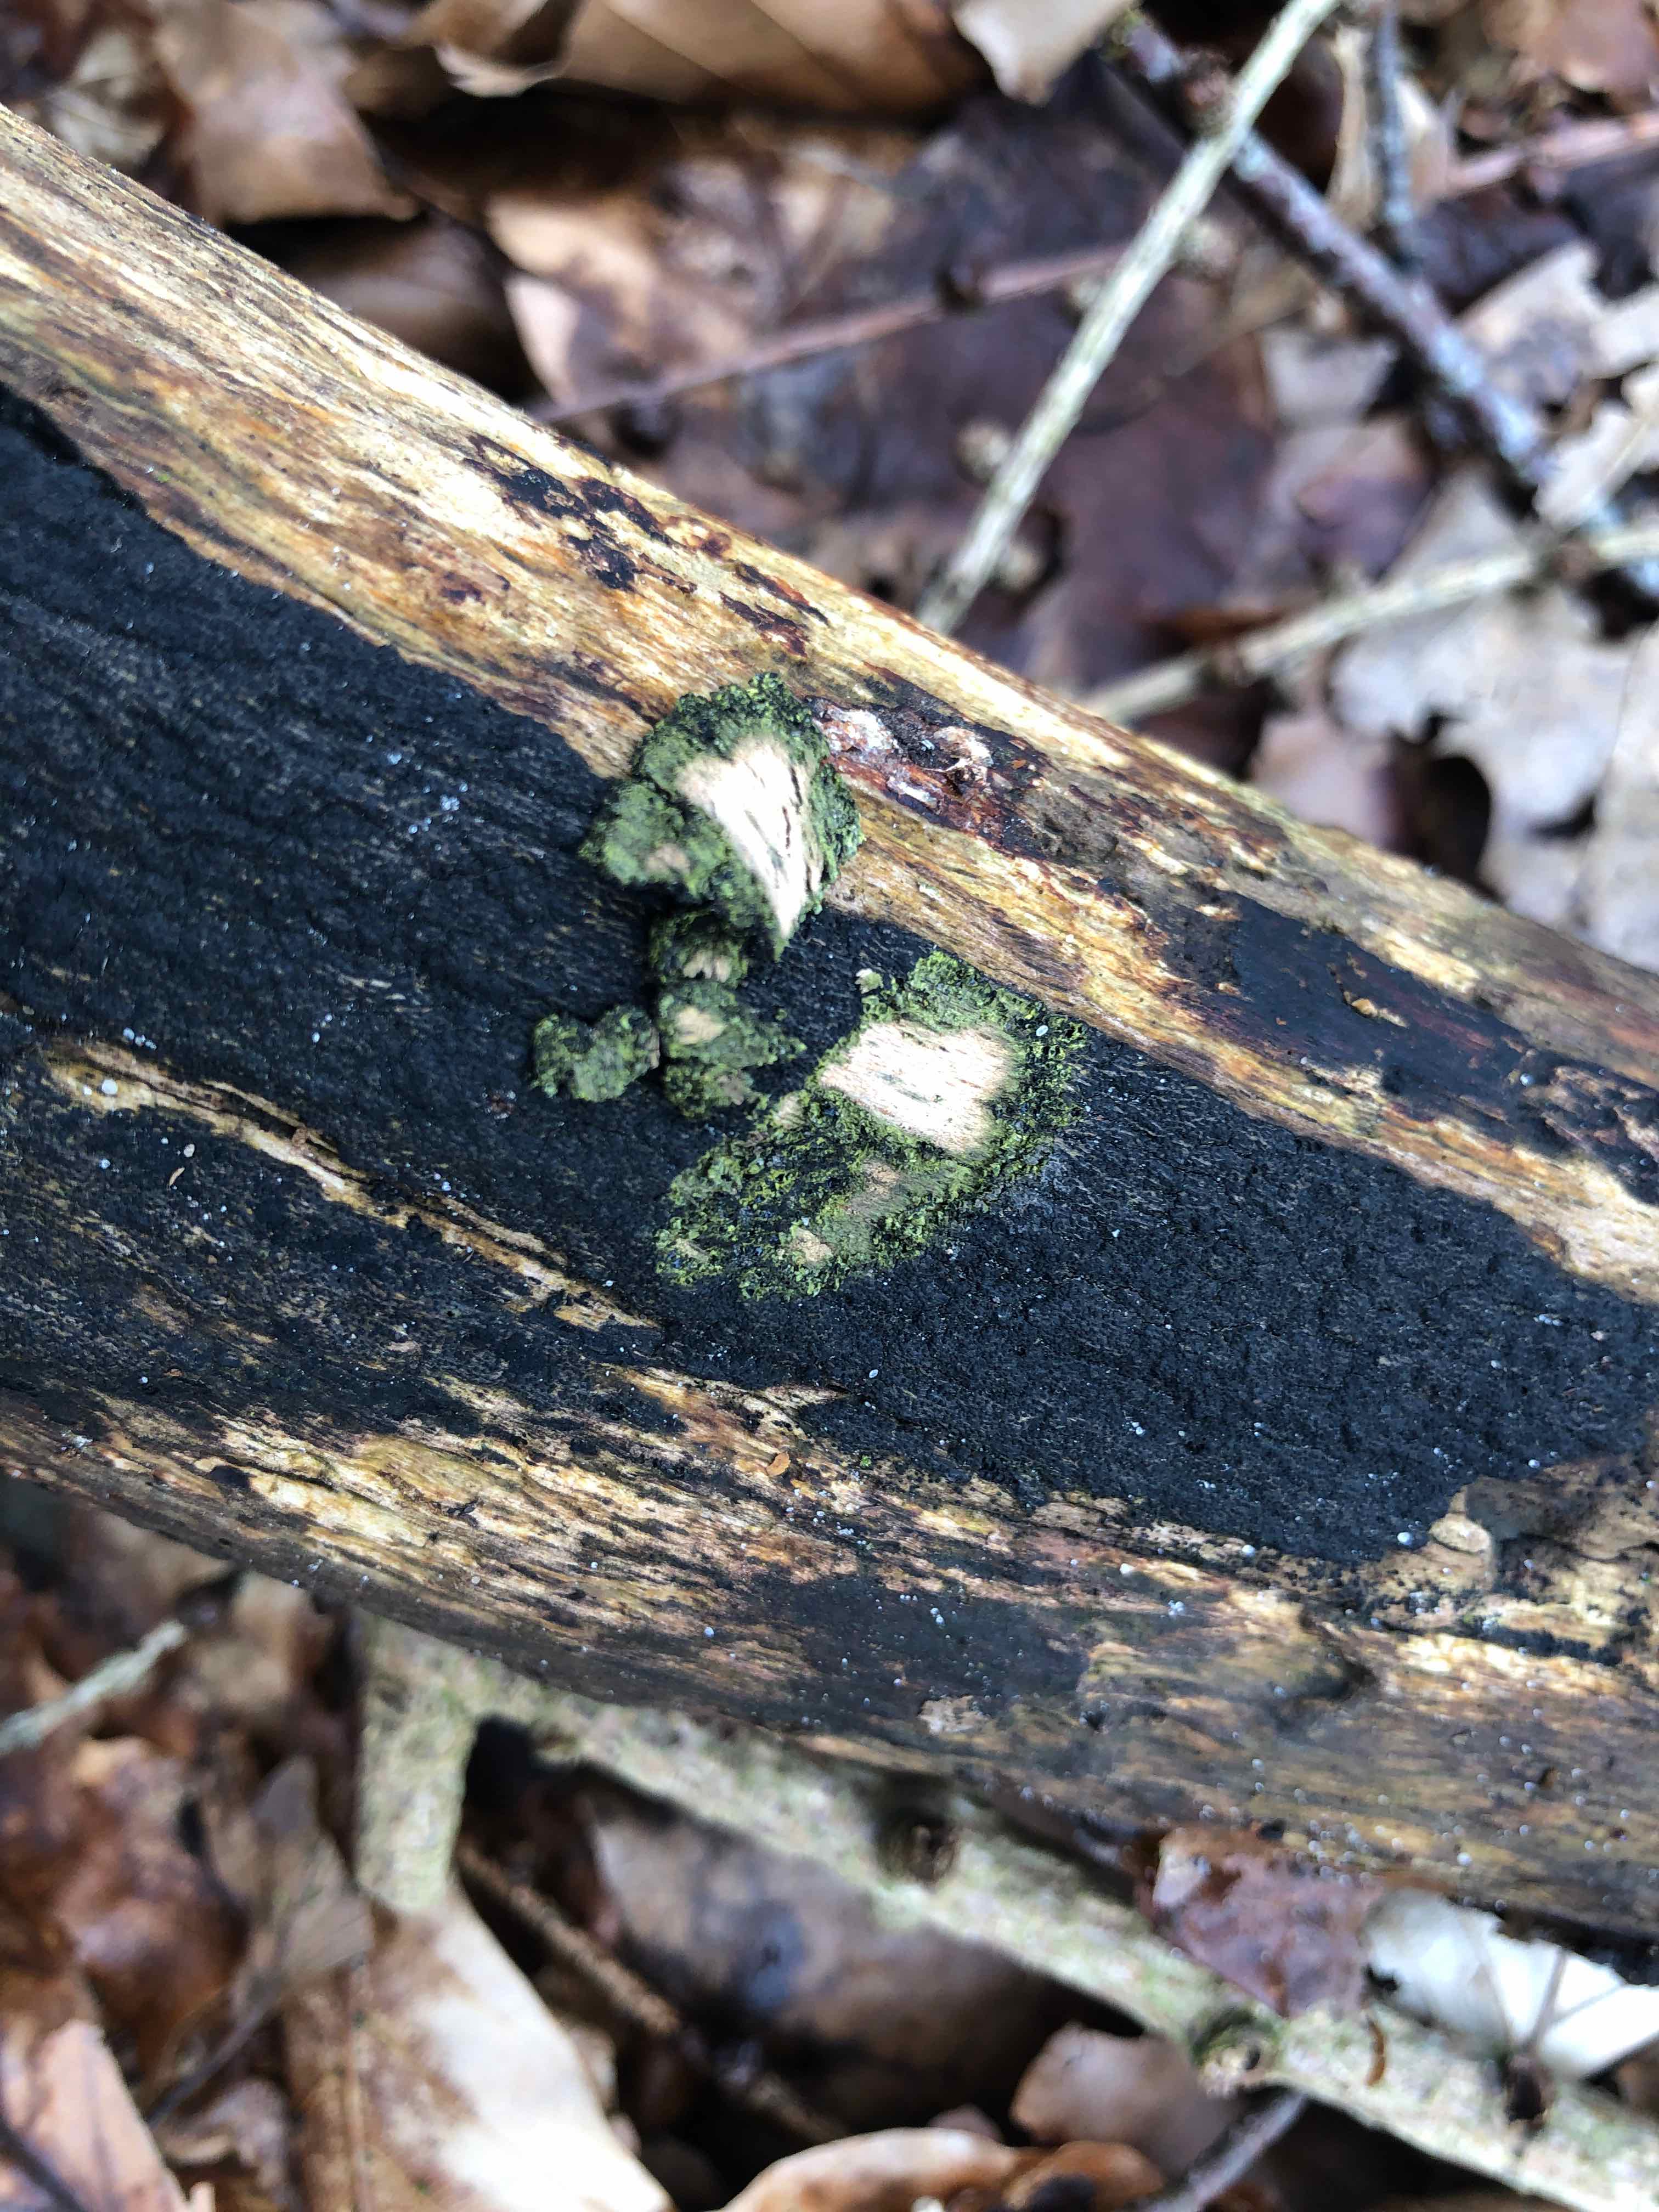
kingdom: Fungi
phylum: Ascomycota
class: Sordariomycetes
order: Xylariales
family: Diatrypaceae
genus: Eutypa
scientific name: Eutypa flavovirens
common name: grønkødet kulskorpe
